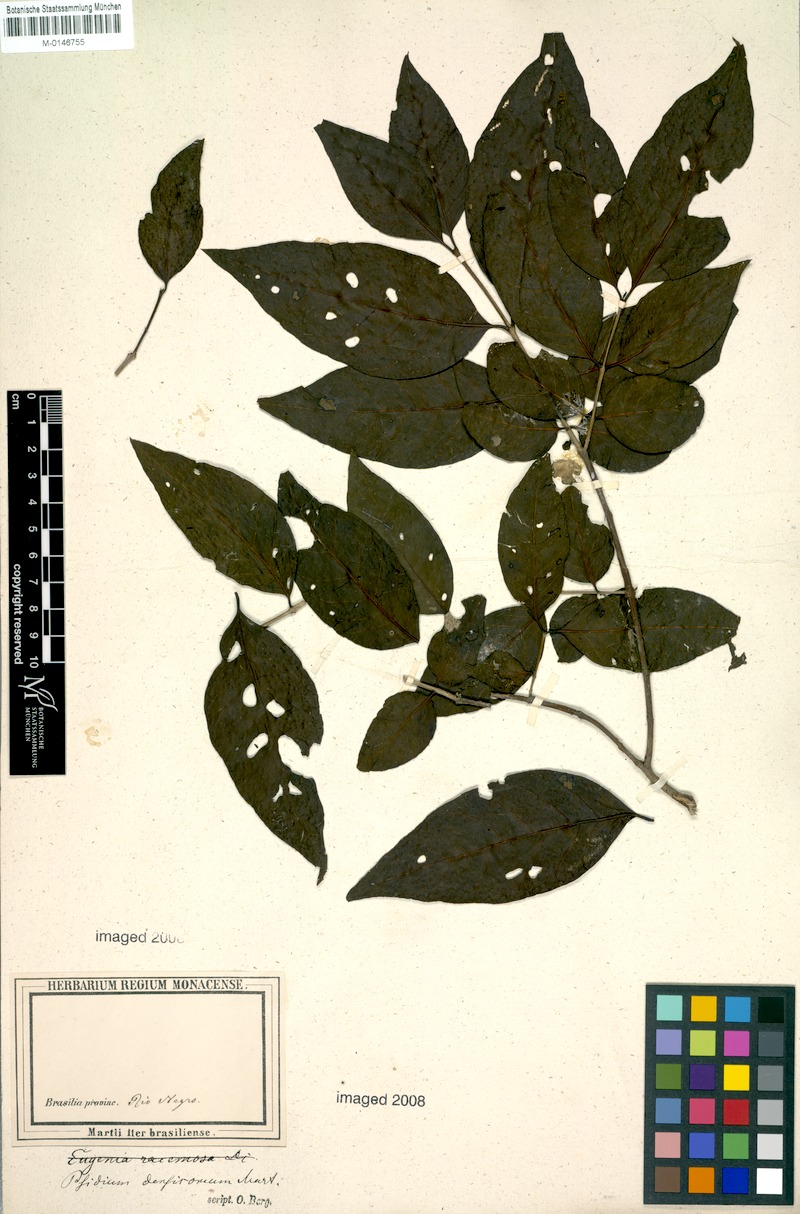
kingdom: Plantae
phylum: Tracheophyta
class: Magnoliopsida
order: Myrtales
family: Myrtaceae
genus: Psidium
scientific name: Psidium densicomum
